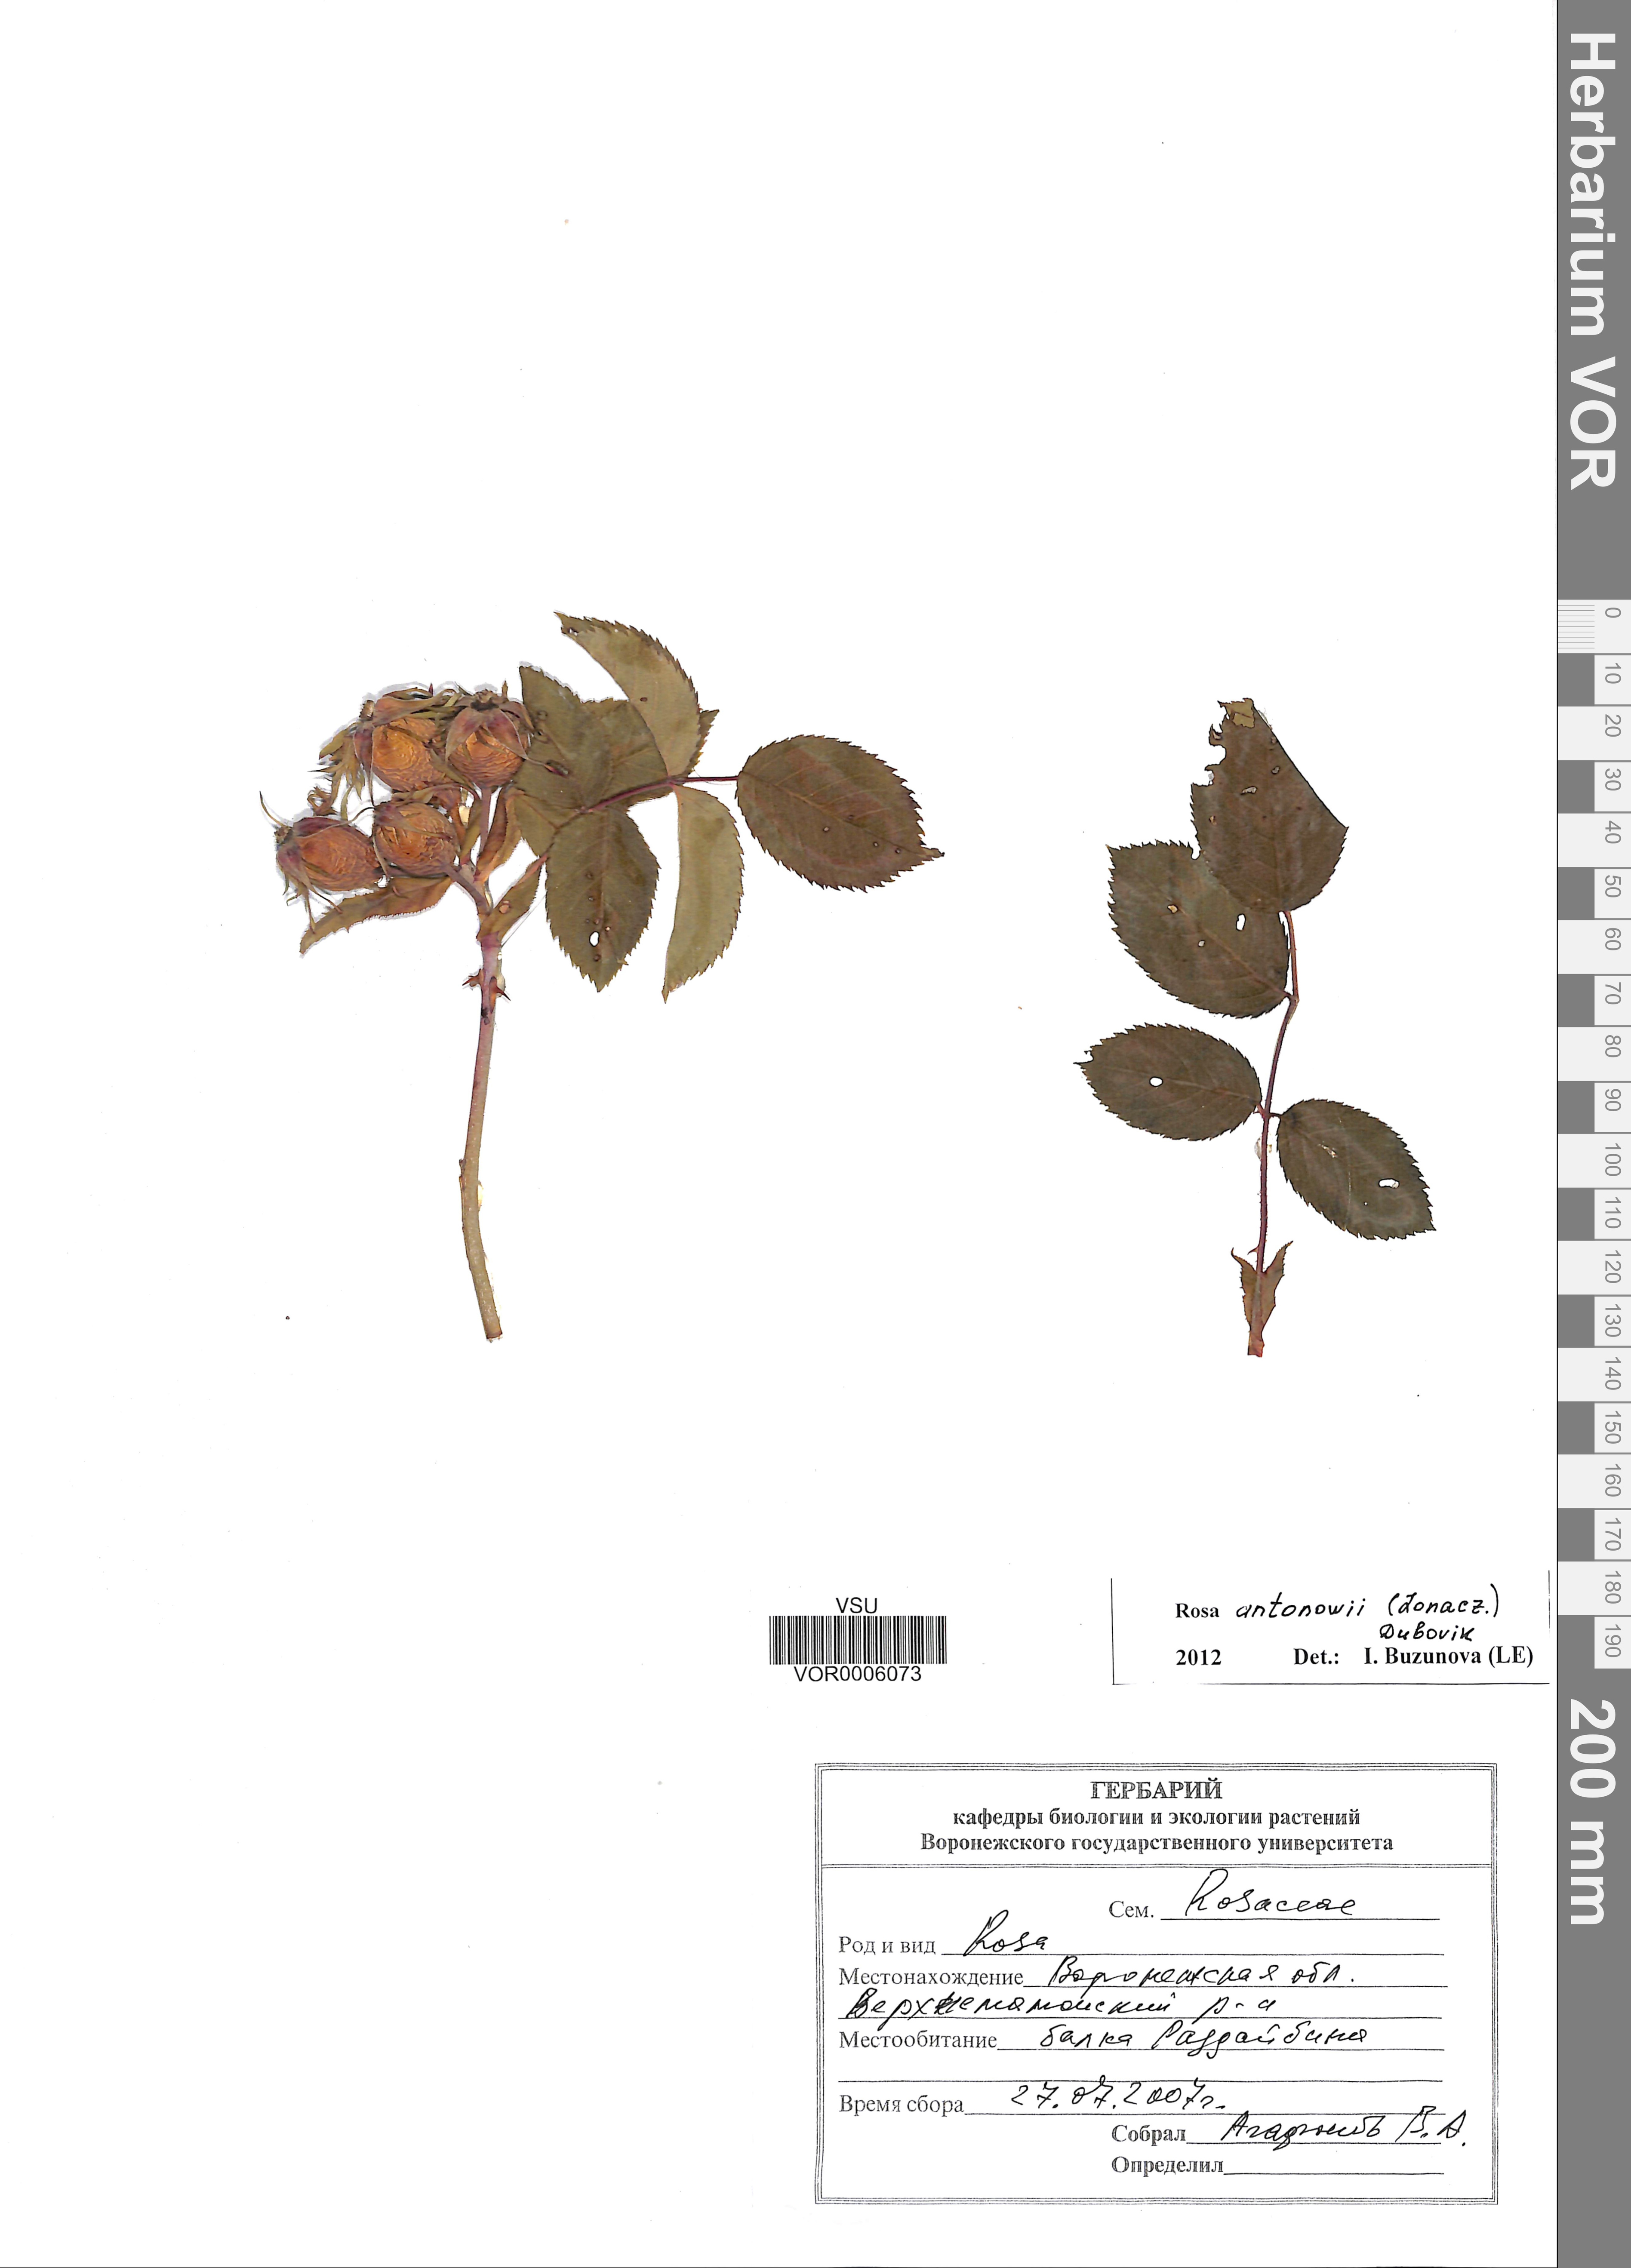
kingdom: Plantae
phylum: Tracheophyta
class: Magnoliopsida
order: Rosales
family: Rosaceae
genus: Rosa
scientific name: Rosa balsamica
